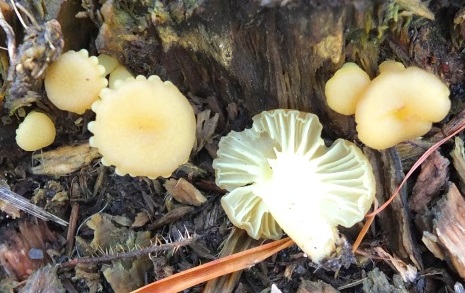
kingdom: Fungi
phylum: Basidiomycota
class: Agaricomycetes
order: Agaricales
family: Hygrophoraceae
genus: Chrysomphalina
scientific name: Chrysomphalina grossula
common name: stød-gyldenblad
